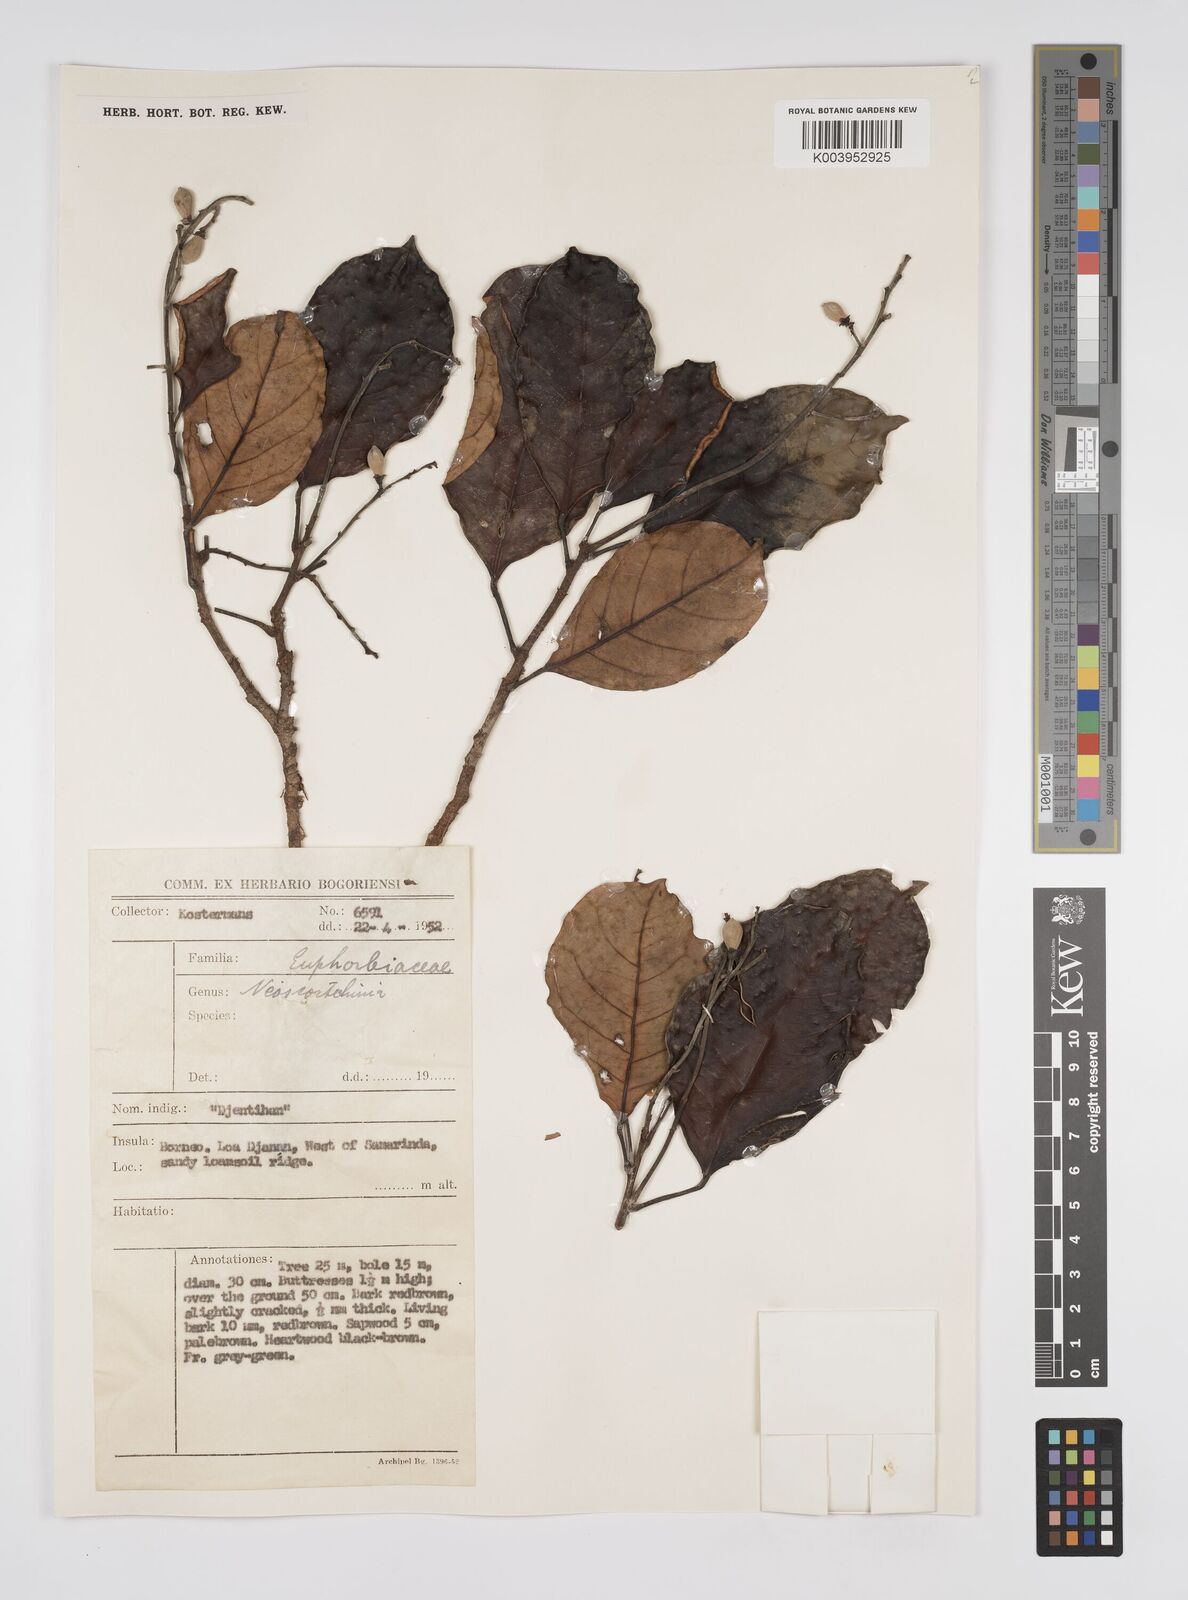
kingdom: Plantae
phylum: Tracheophyta
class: Magnoliopsida
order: Malpighiales
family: Euphorbiaceae
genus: Neoscortechinia
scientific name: Neoscortechinia philippinensis
